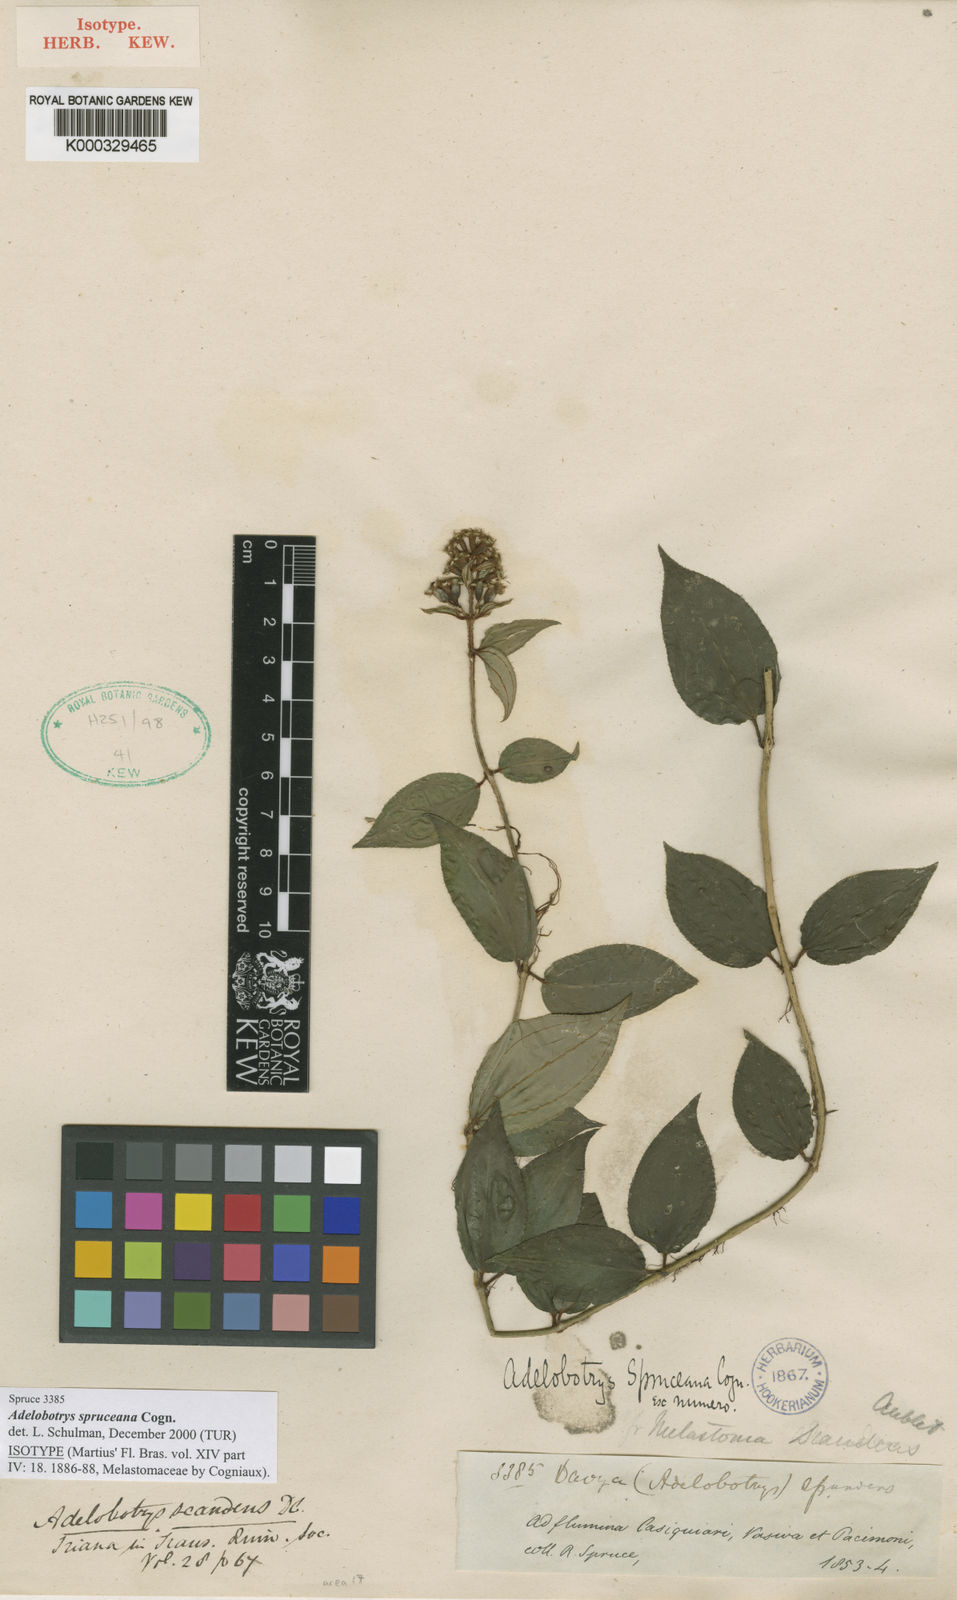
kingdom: Plantae
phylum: Tracheophyta
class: Magnoliopsida
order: Myrtales
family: Melastomataceae
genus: Adelobotrys
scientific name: Adelobotrys
